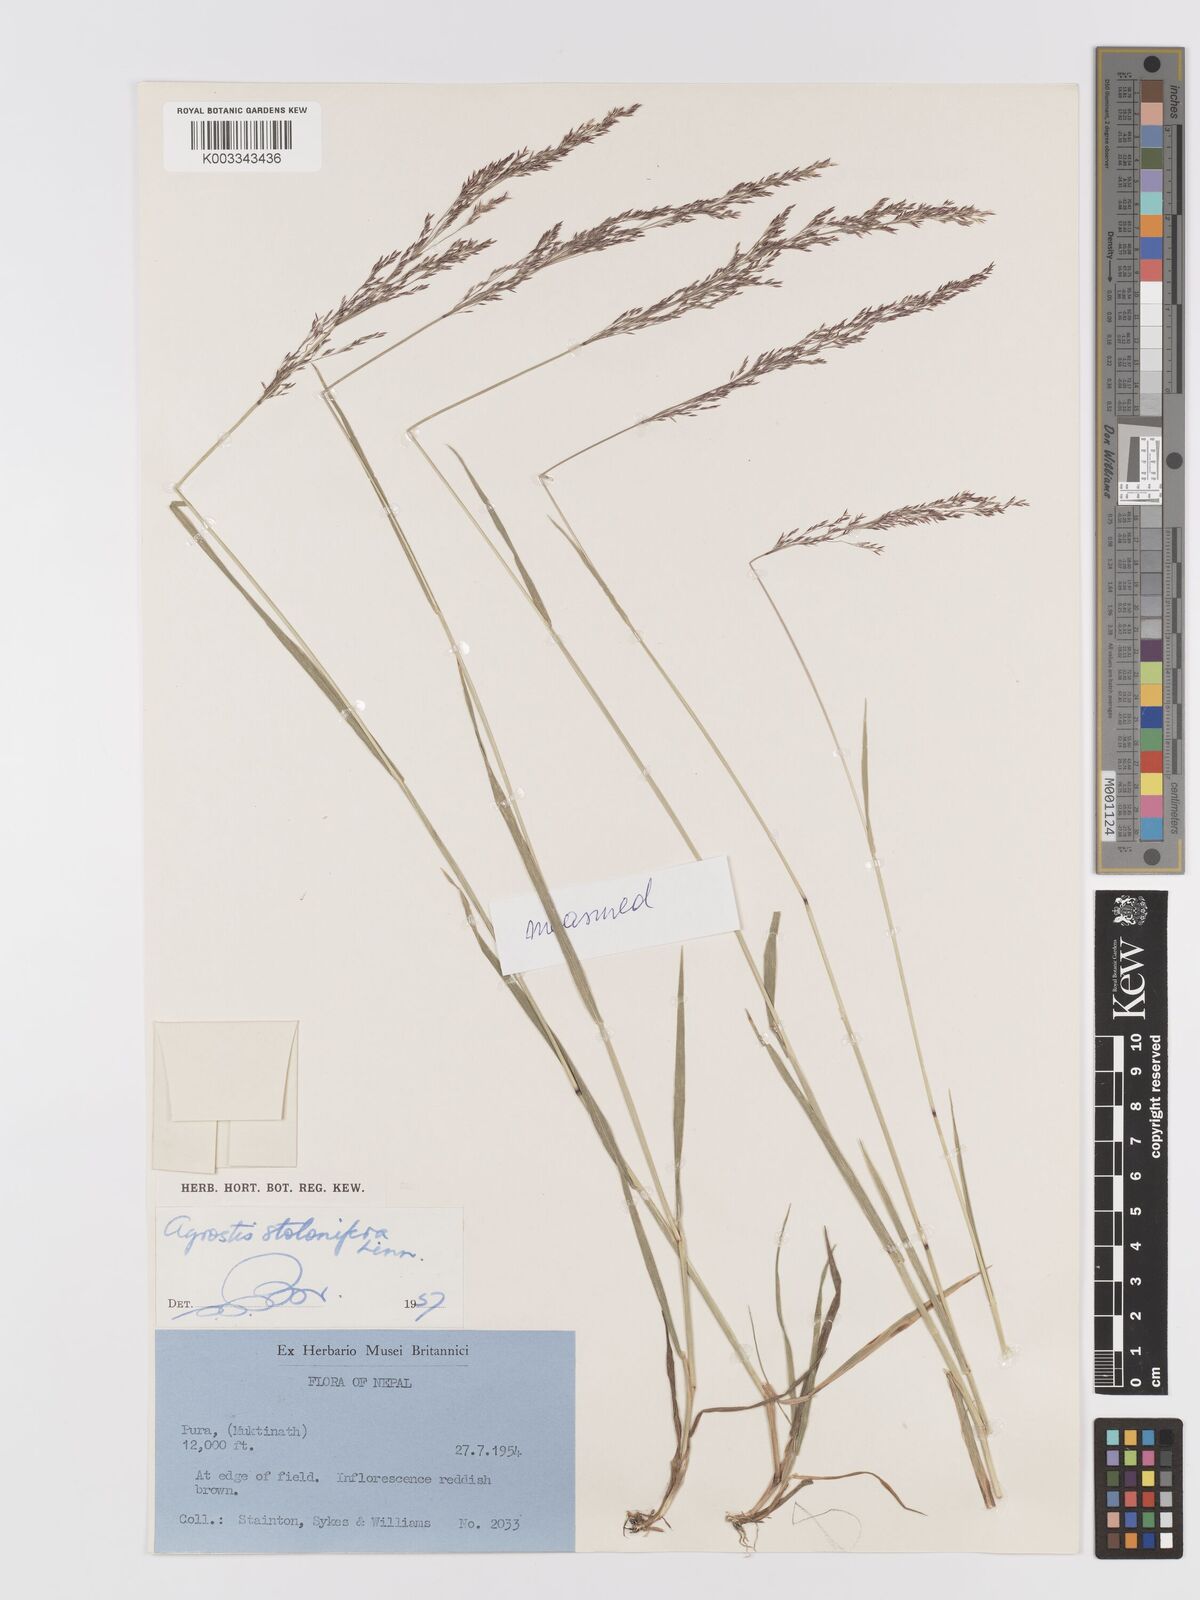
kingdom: Plantae
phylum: Tracheophyta
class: Liliopsida
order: Poales
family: Poaceae
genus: Agrostis
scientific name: Agrostis stolonifera
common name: Creeping bentgrass
